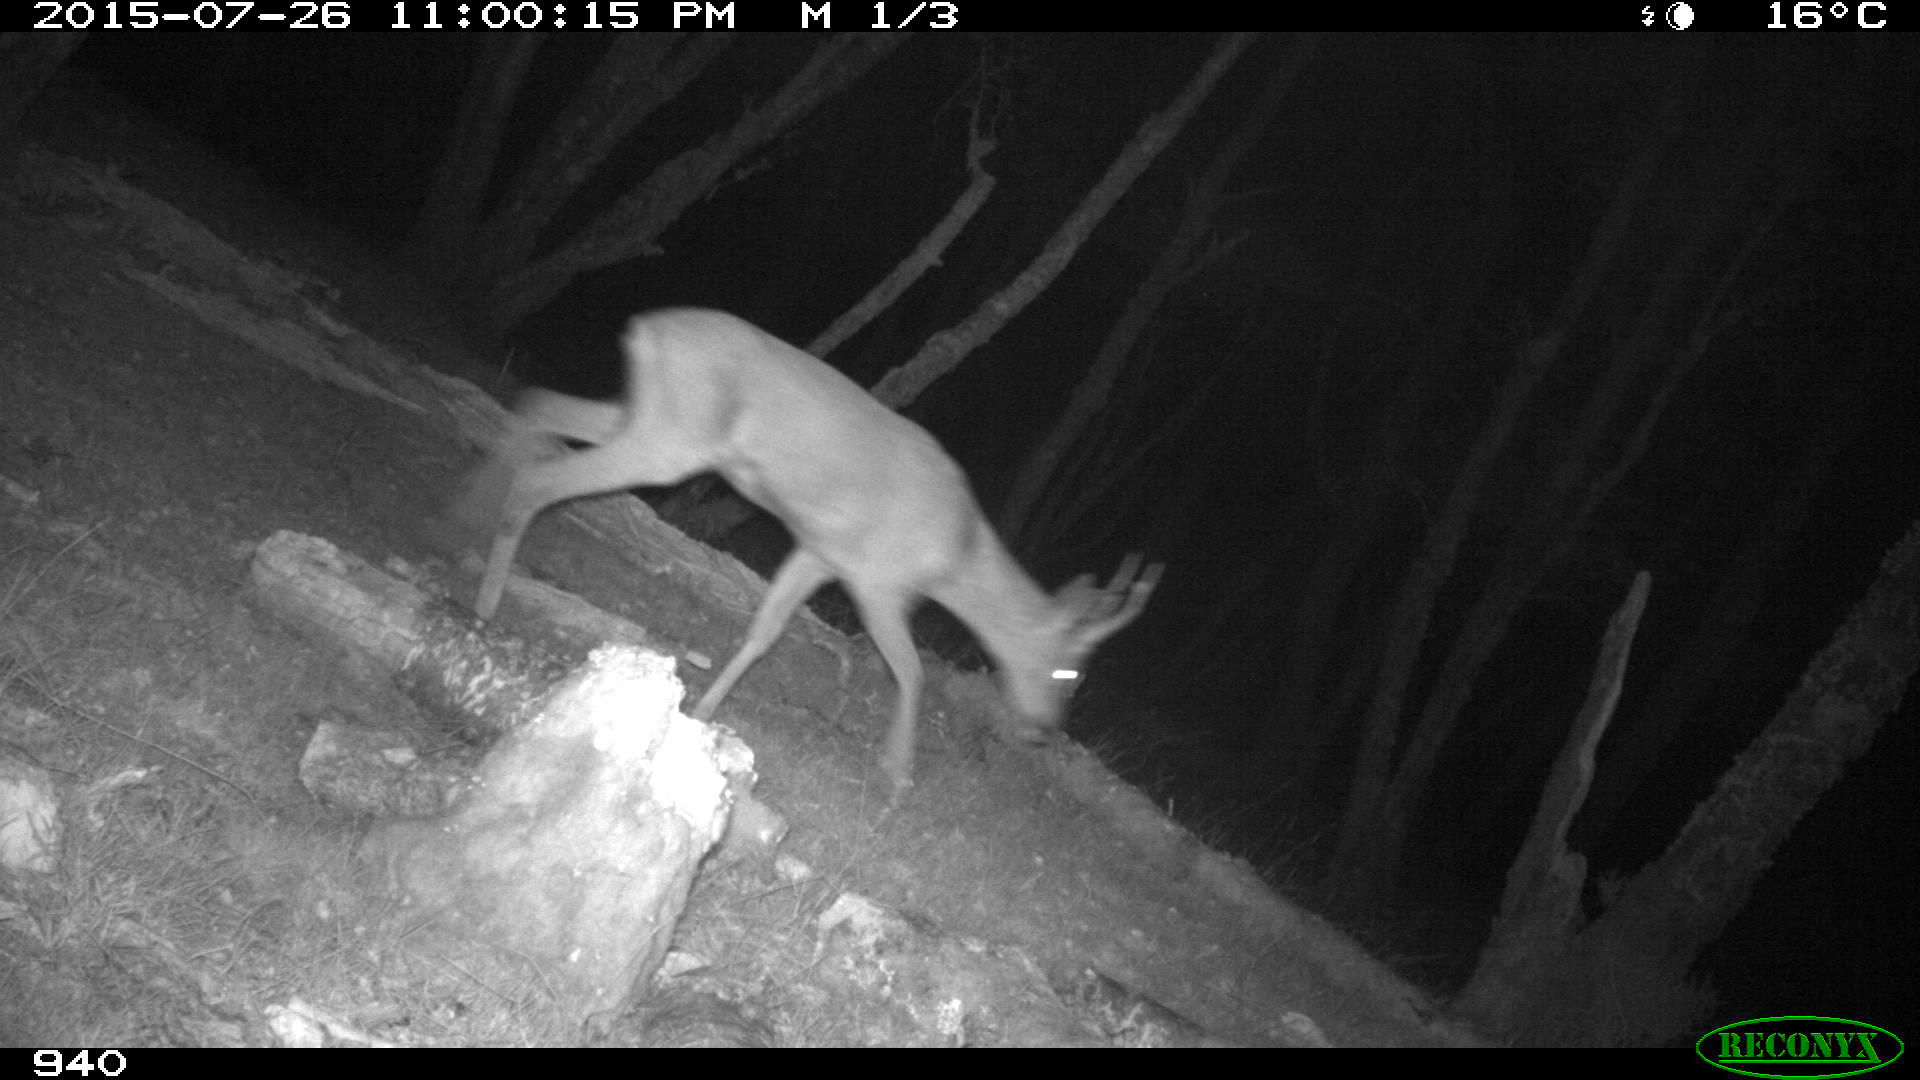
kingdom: Animalia
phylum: Chordata
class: Mammalia
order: Artiodactyla
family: Cervidae
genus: Capreolus
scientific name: Capreolus capreolus
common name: Western roe deer
